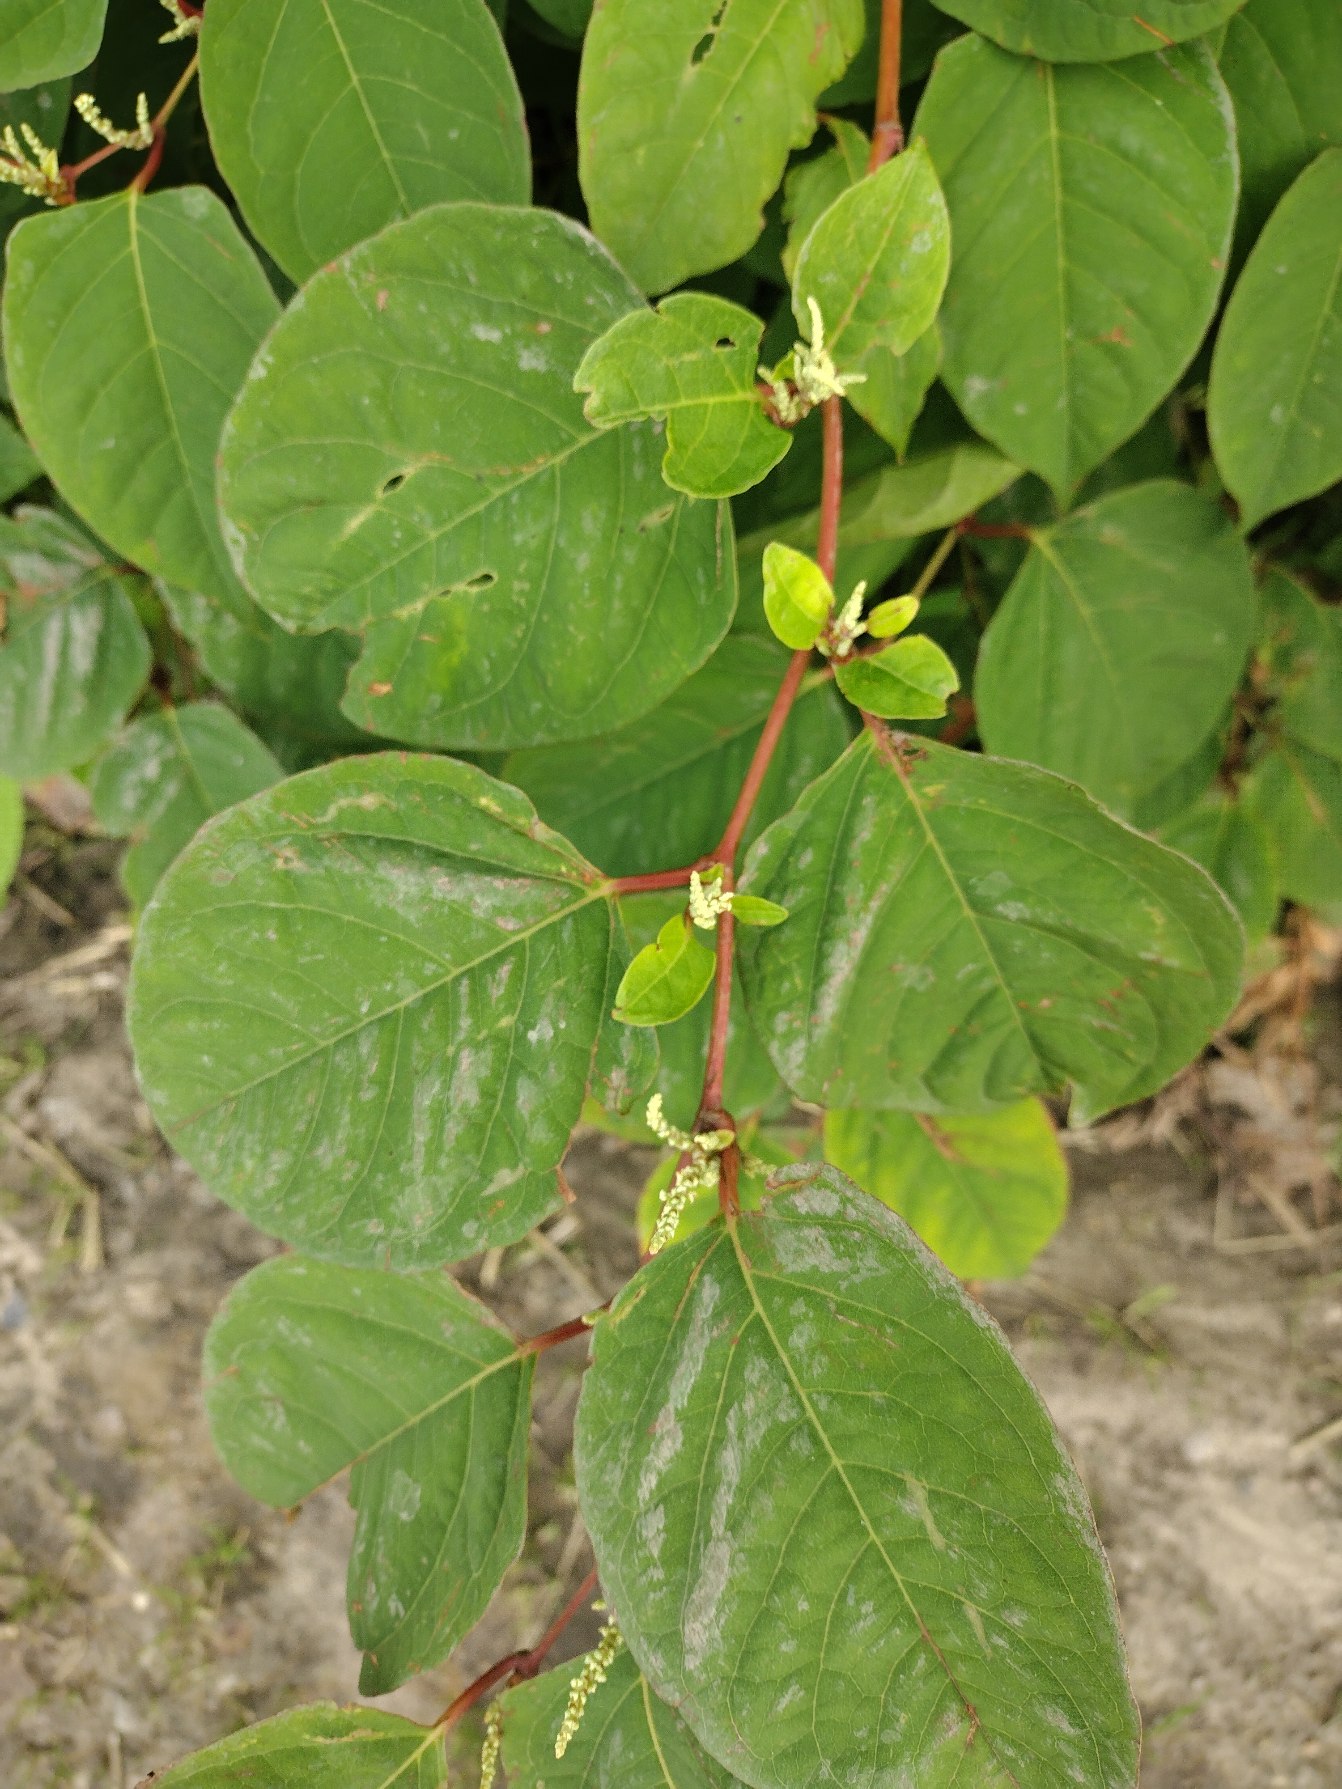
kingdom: Plantae
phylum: Tracheophyta
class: Magnoliopsida
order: Caryophyllales
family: Polygonaceae
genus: Reynoutria
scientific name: Reynoutria japonica
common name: Japan-pileurt
